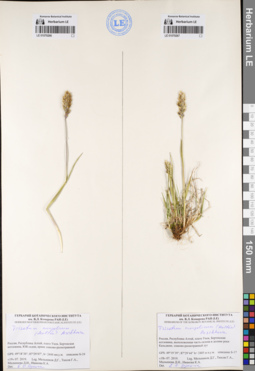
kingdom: Plantae
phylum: Tracheophyta
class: Liliopsida
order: Poales
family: Poaceae
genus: Koeleria
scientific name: Koeleria spicata
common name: Mountain trisetum
